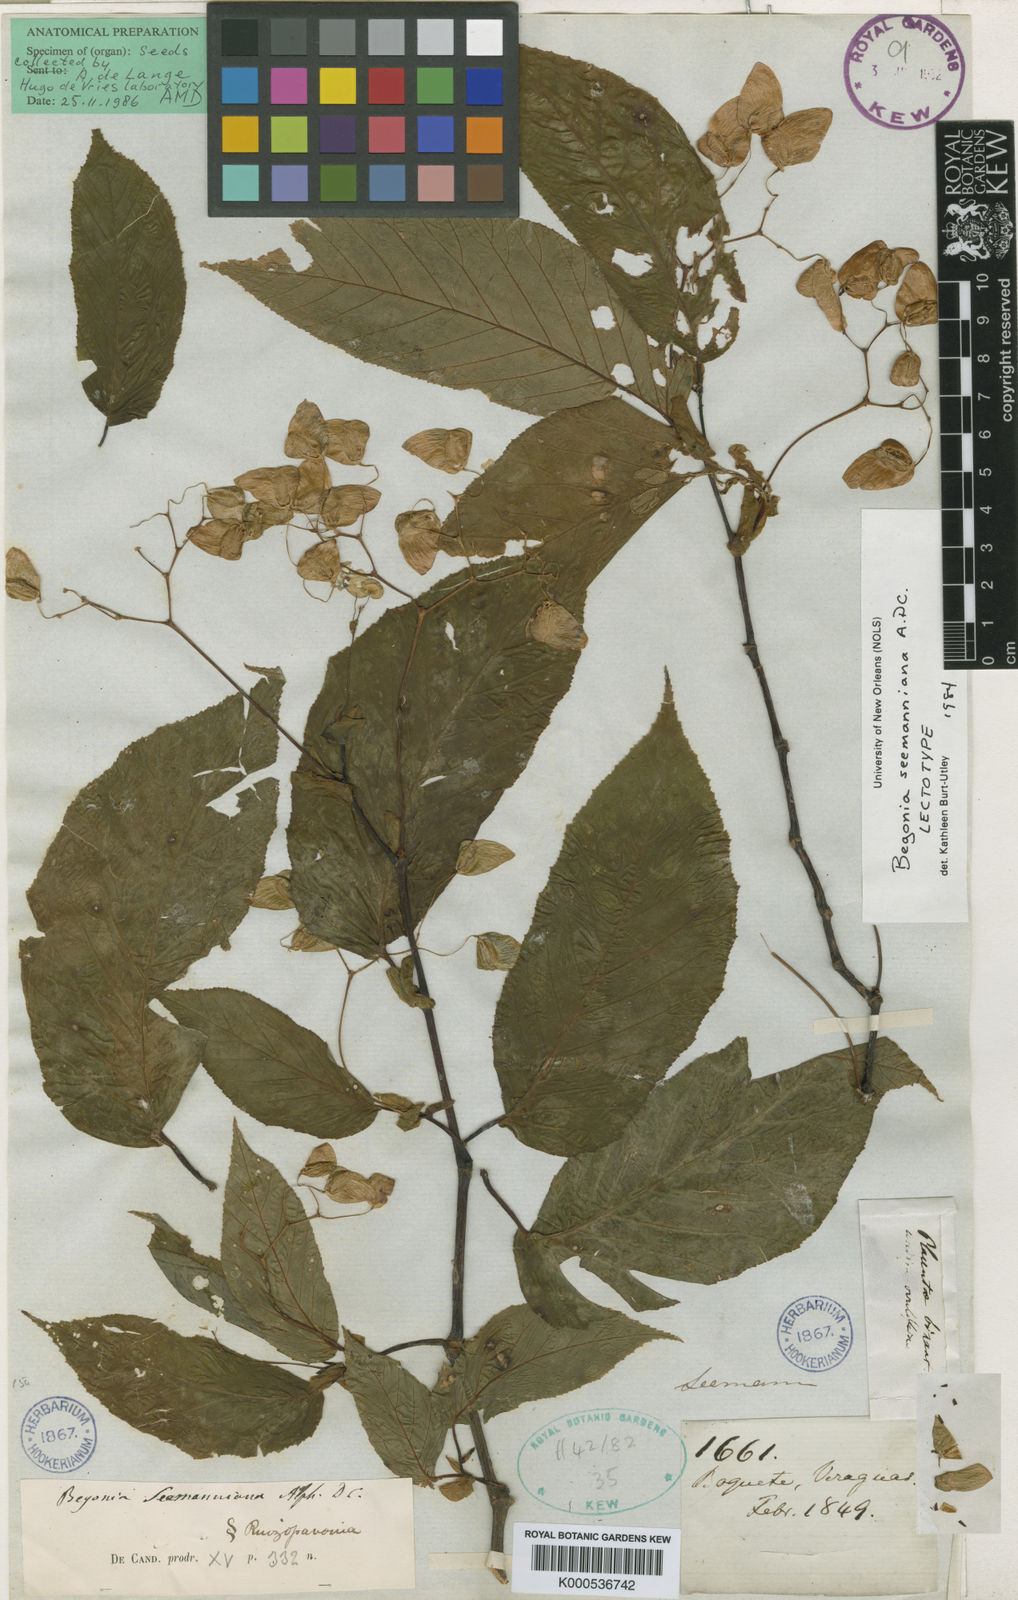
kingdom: Plantae
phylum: Tracheophyta
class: Magnoliopsida
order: Cucurbitales
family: Begoniaceae
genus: Begonia
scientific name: Begonia seemanniana
